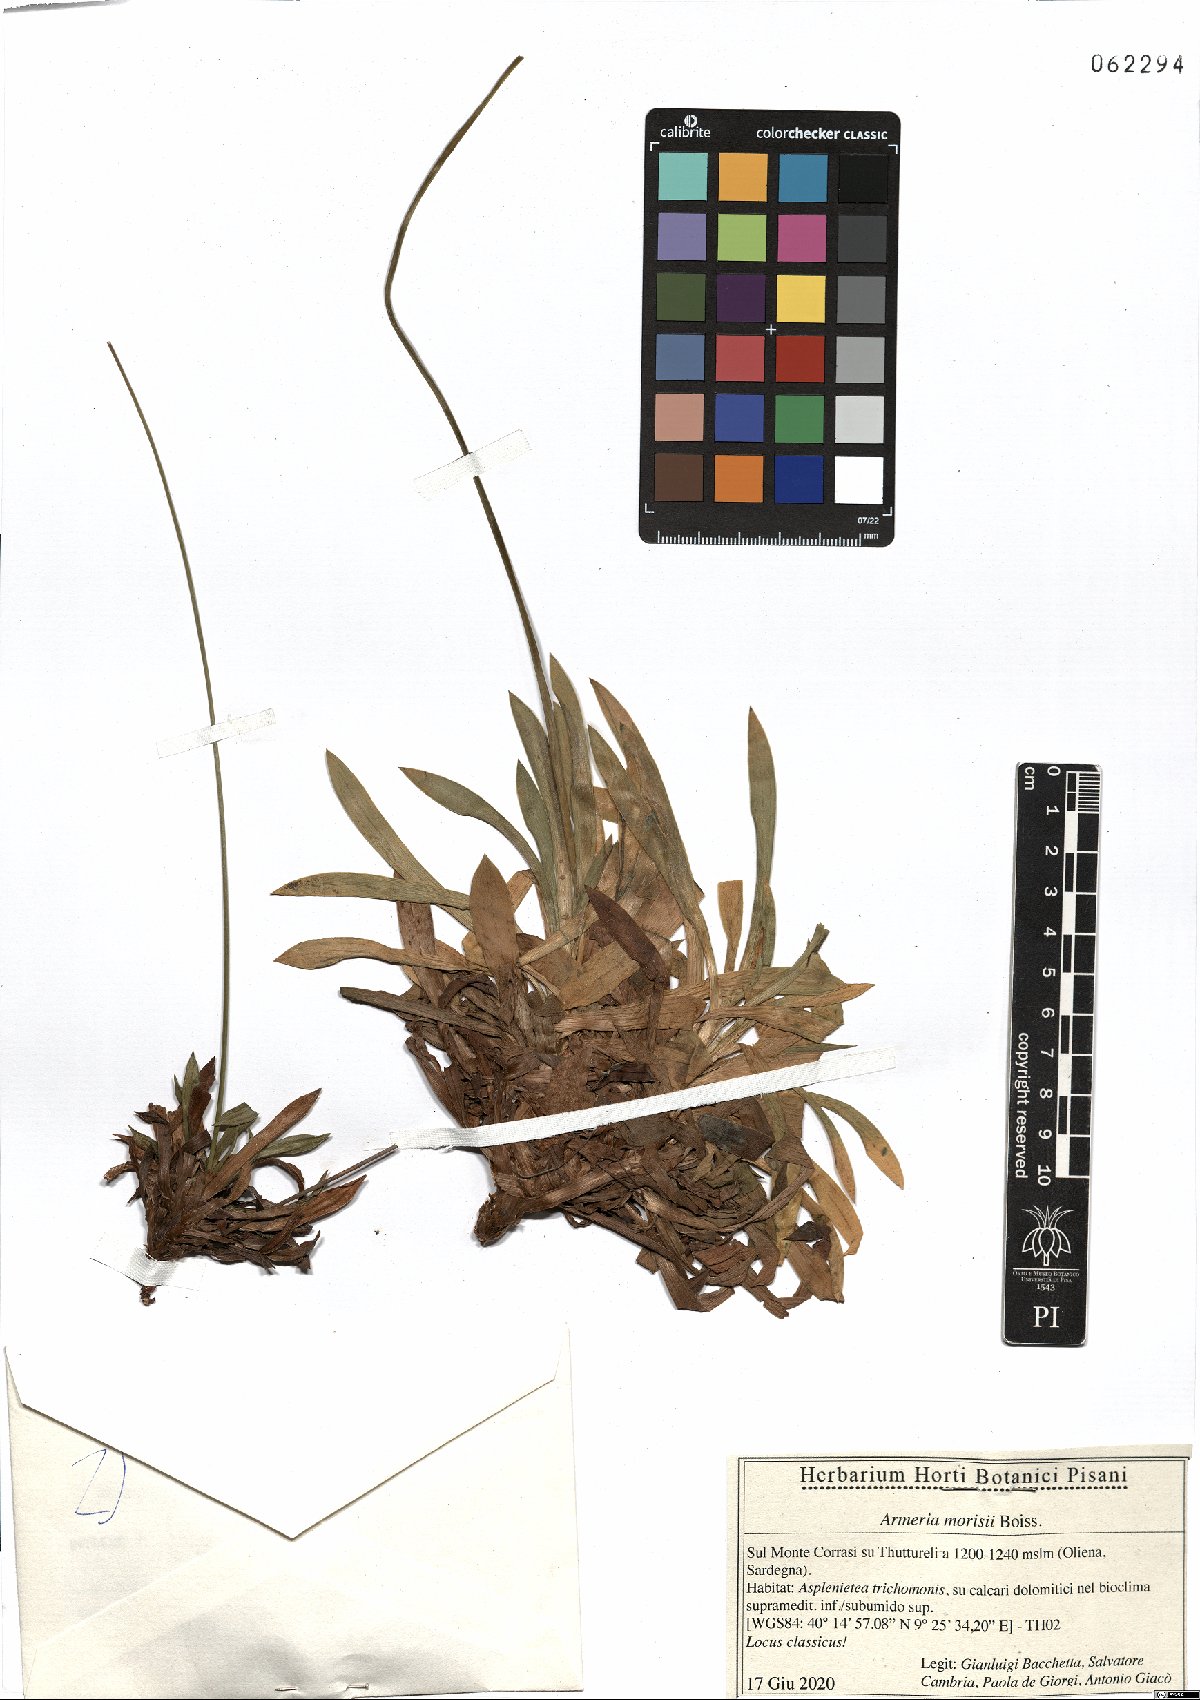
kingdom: Plantae
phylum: Tracheophyta
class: Magnoliopsida
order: Caryophyllales
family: Plumbaginaceae
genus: Armeria
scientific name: Armeria morisii
